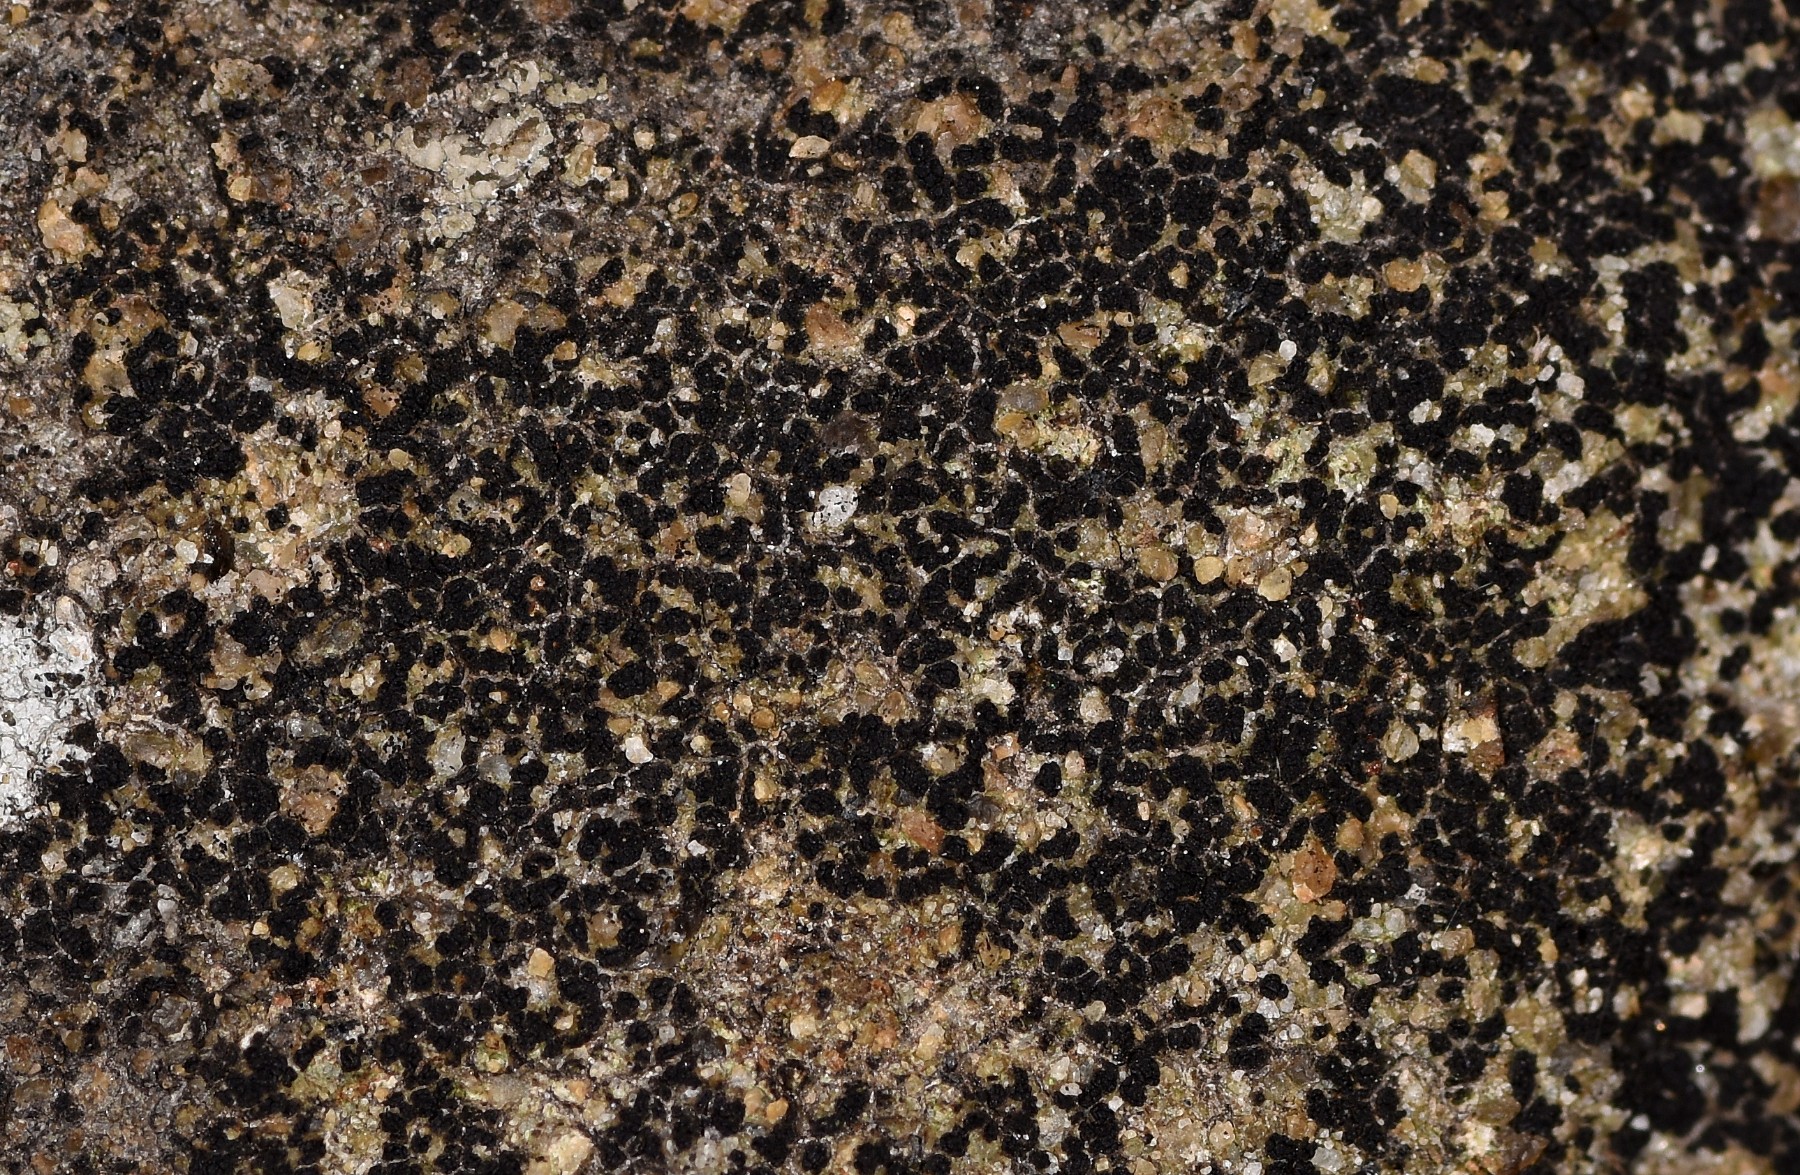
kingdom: Fungi
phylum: Ascomycota
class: Lecanoromycetes
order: Acarosporales
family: Acarosporaceae
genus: Acarospora
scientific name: Acarospora privigna
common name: sort foldekantlav
